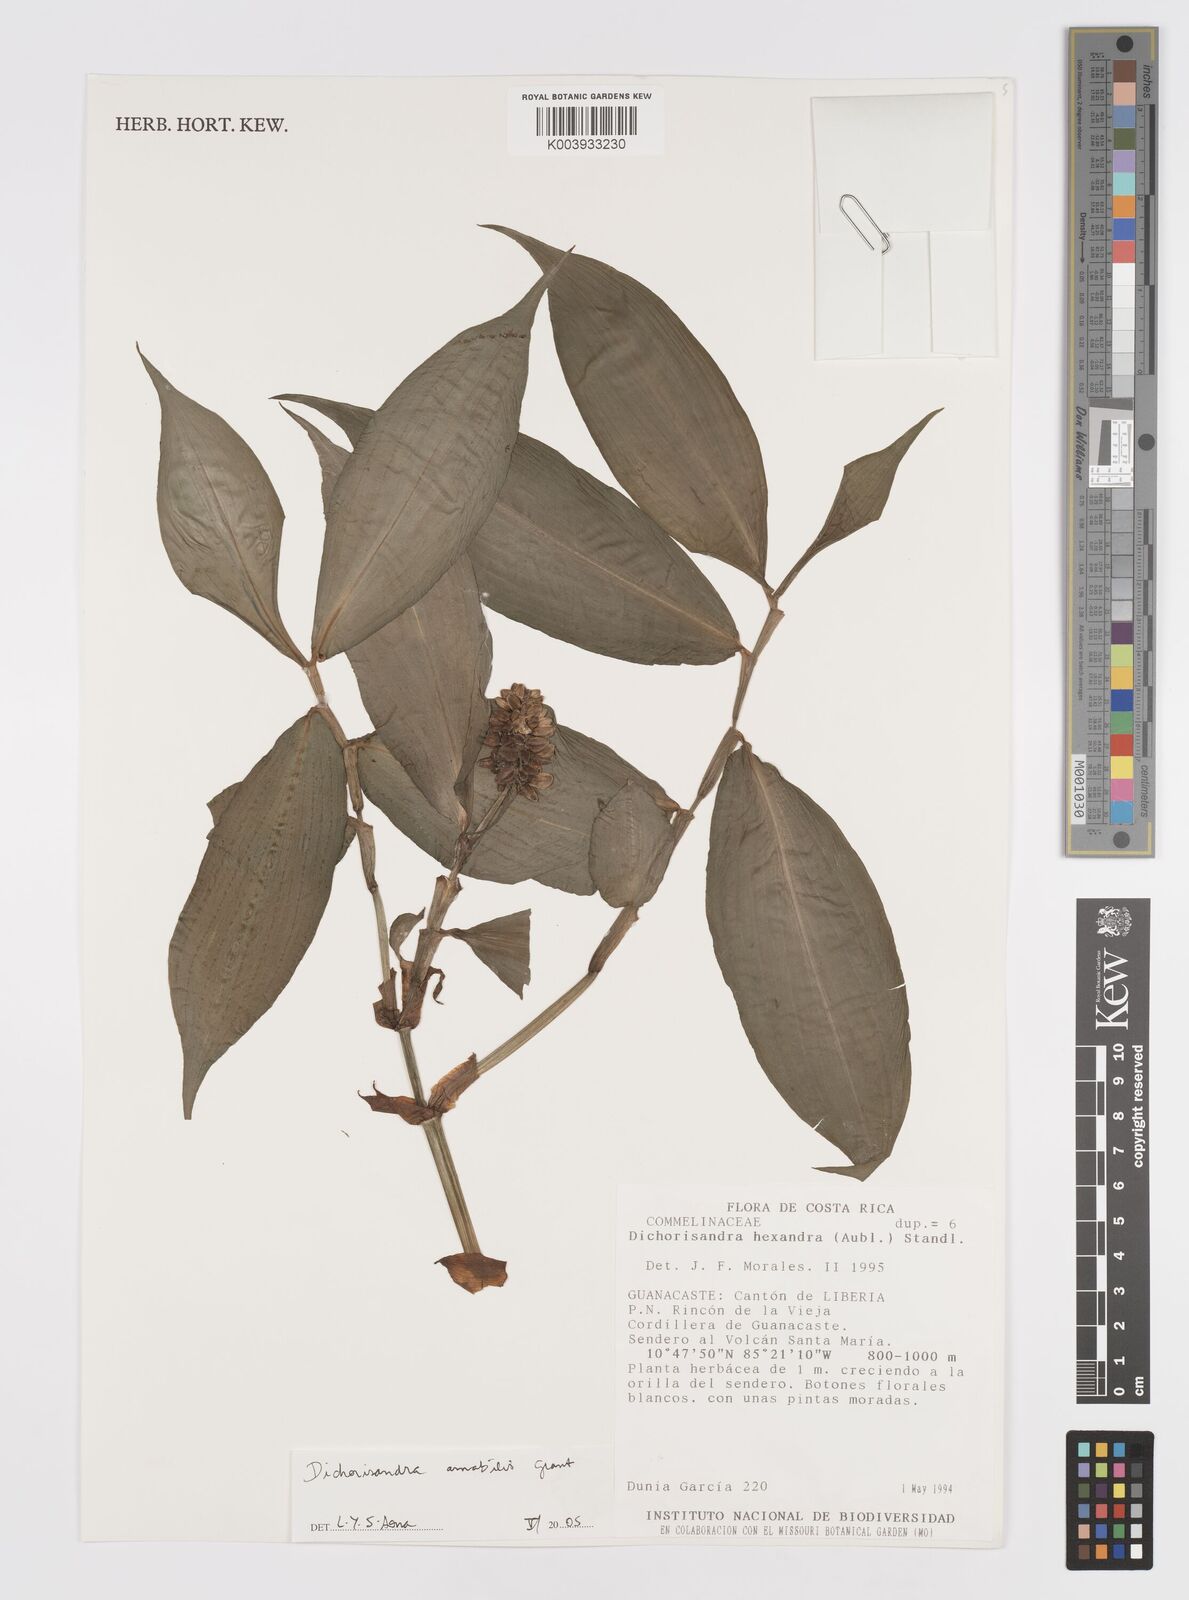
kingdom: Plantae
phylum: Tracheophyta
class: Liliopsida
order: Commelinales
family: Commelinaceae
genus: Dichorisandra
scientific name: Dichorisandra amabilis
